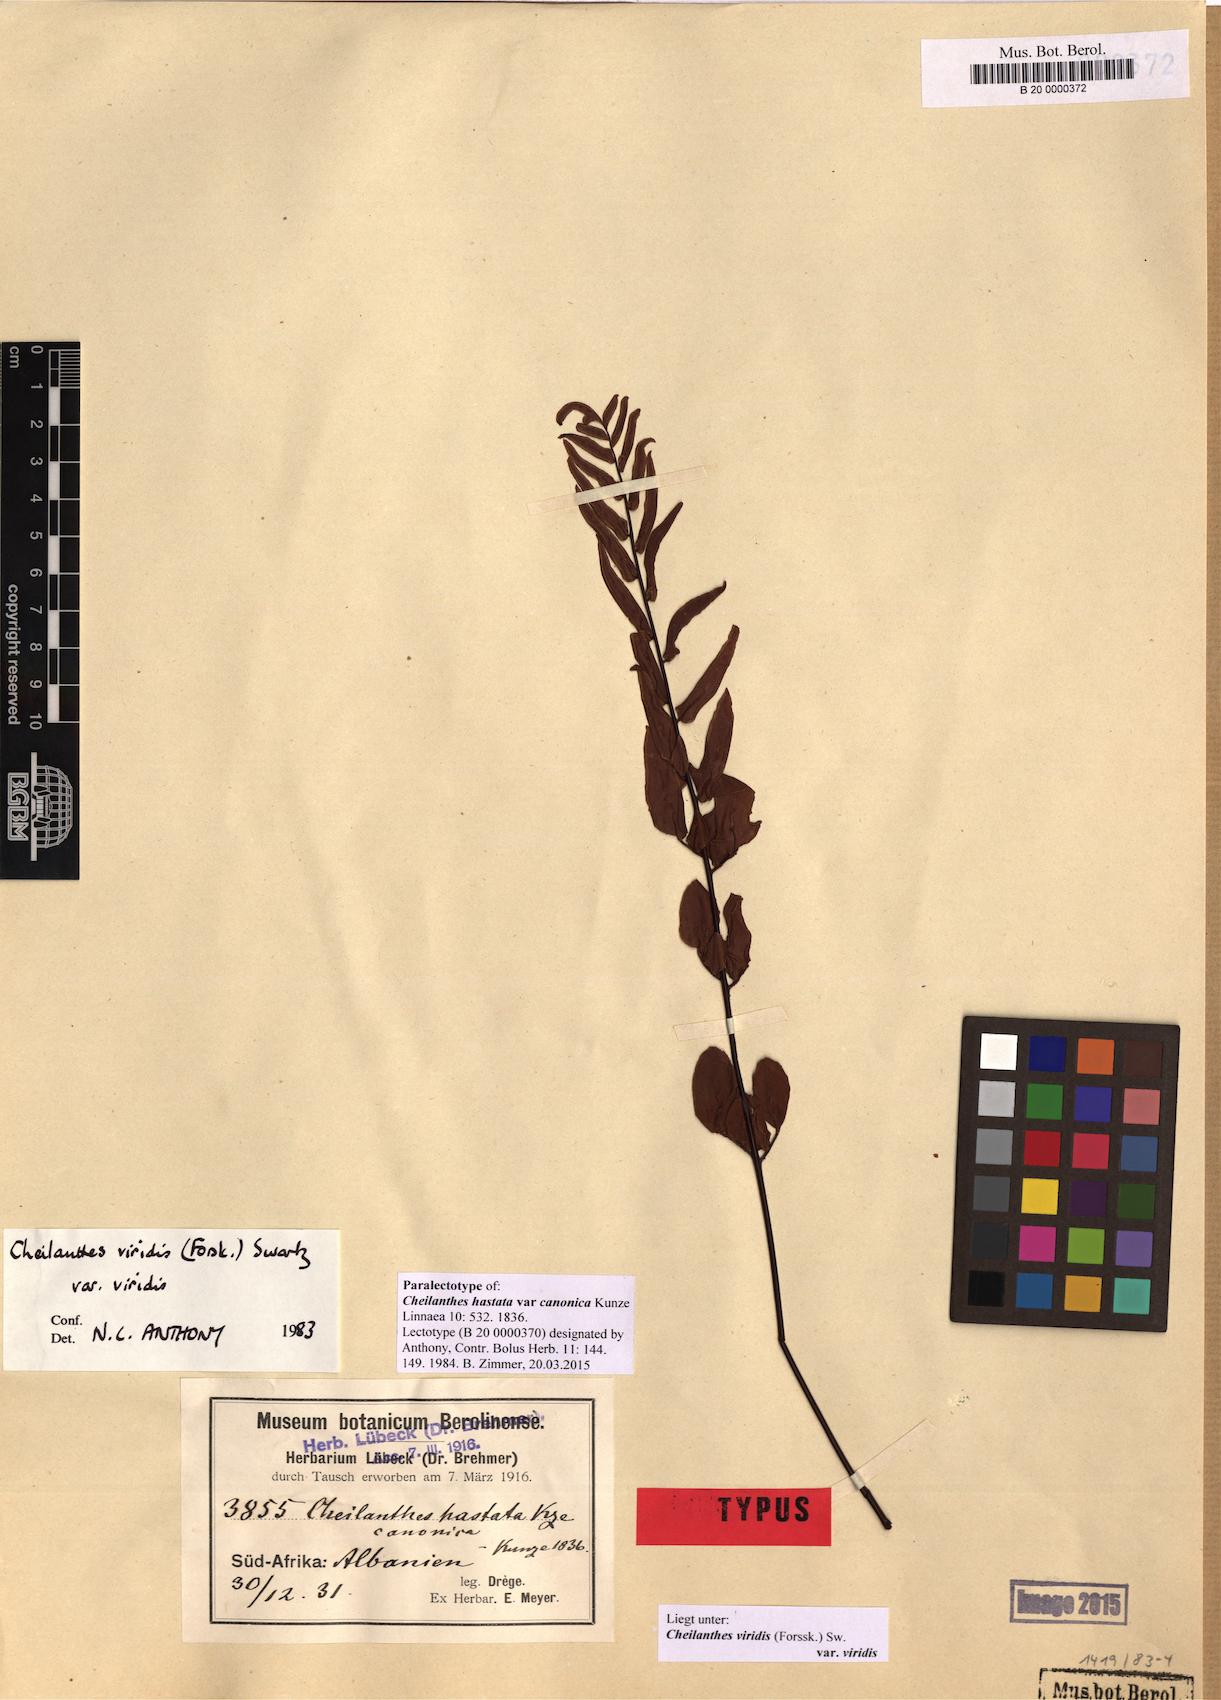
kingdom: Plantae
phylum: Tracheophyta
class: Polypodiopsida
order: Polypodiales
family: Pteridaceae
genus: Cheilanthes
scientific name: Cheilanthes viridis
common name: Green cliffbrake
